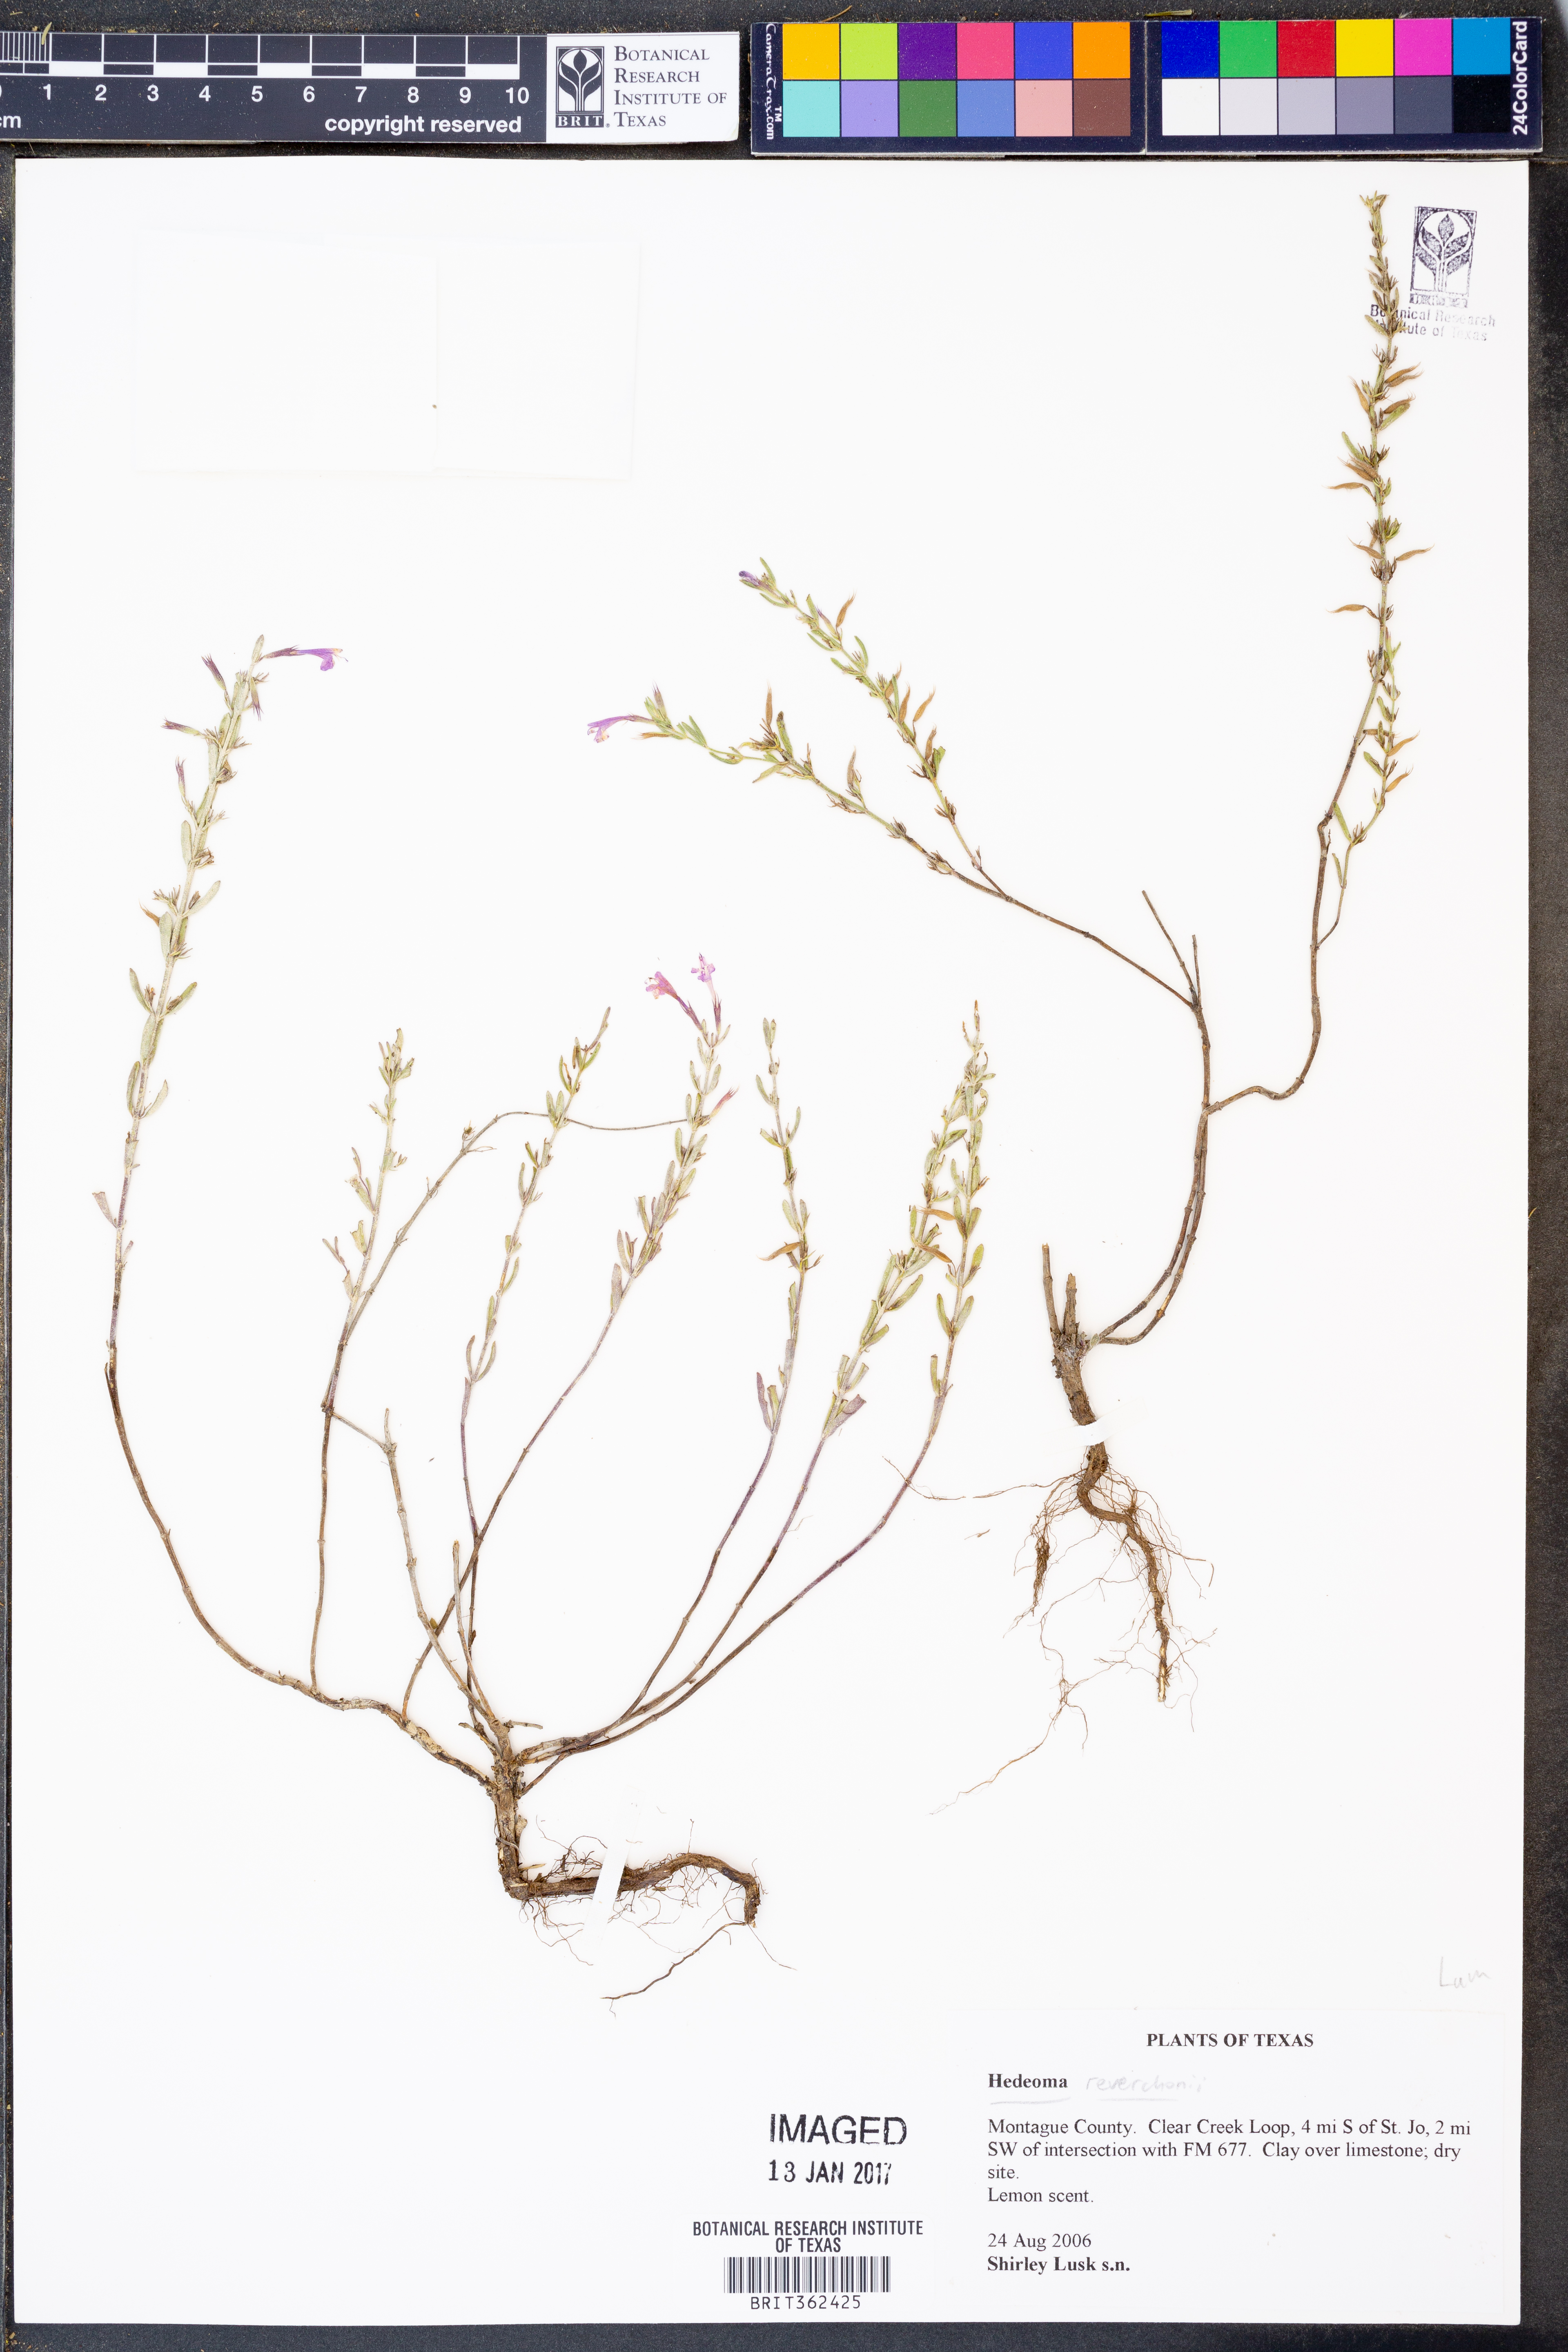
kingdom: Plantae
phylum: Tracheophyta
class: Magnoliopsida
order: Lamiales
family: Lamiaceae
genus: Hedeoma
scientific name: Hedeoma reverchonii
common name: Reverchon's false penny-royal
